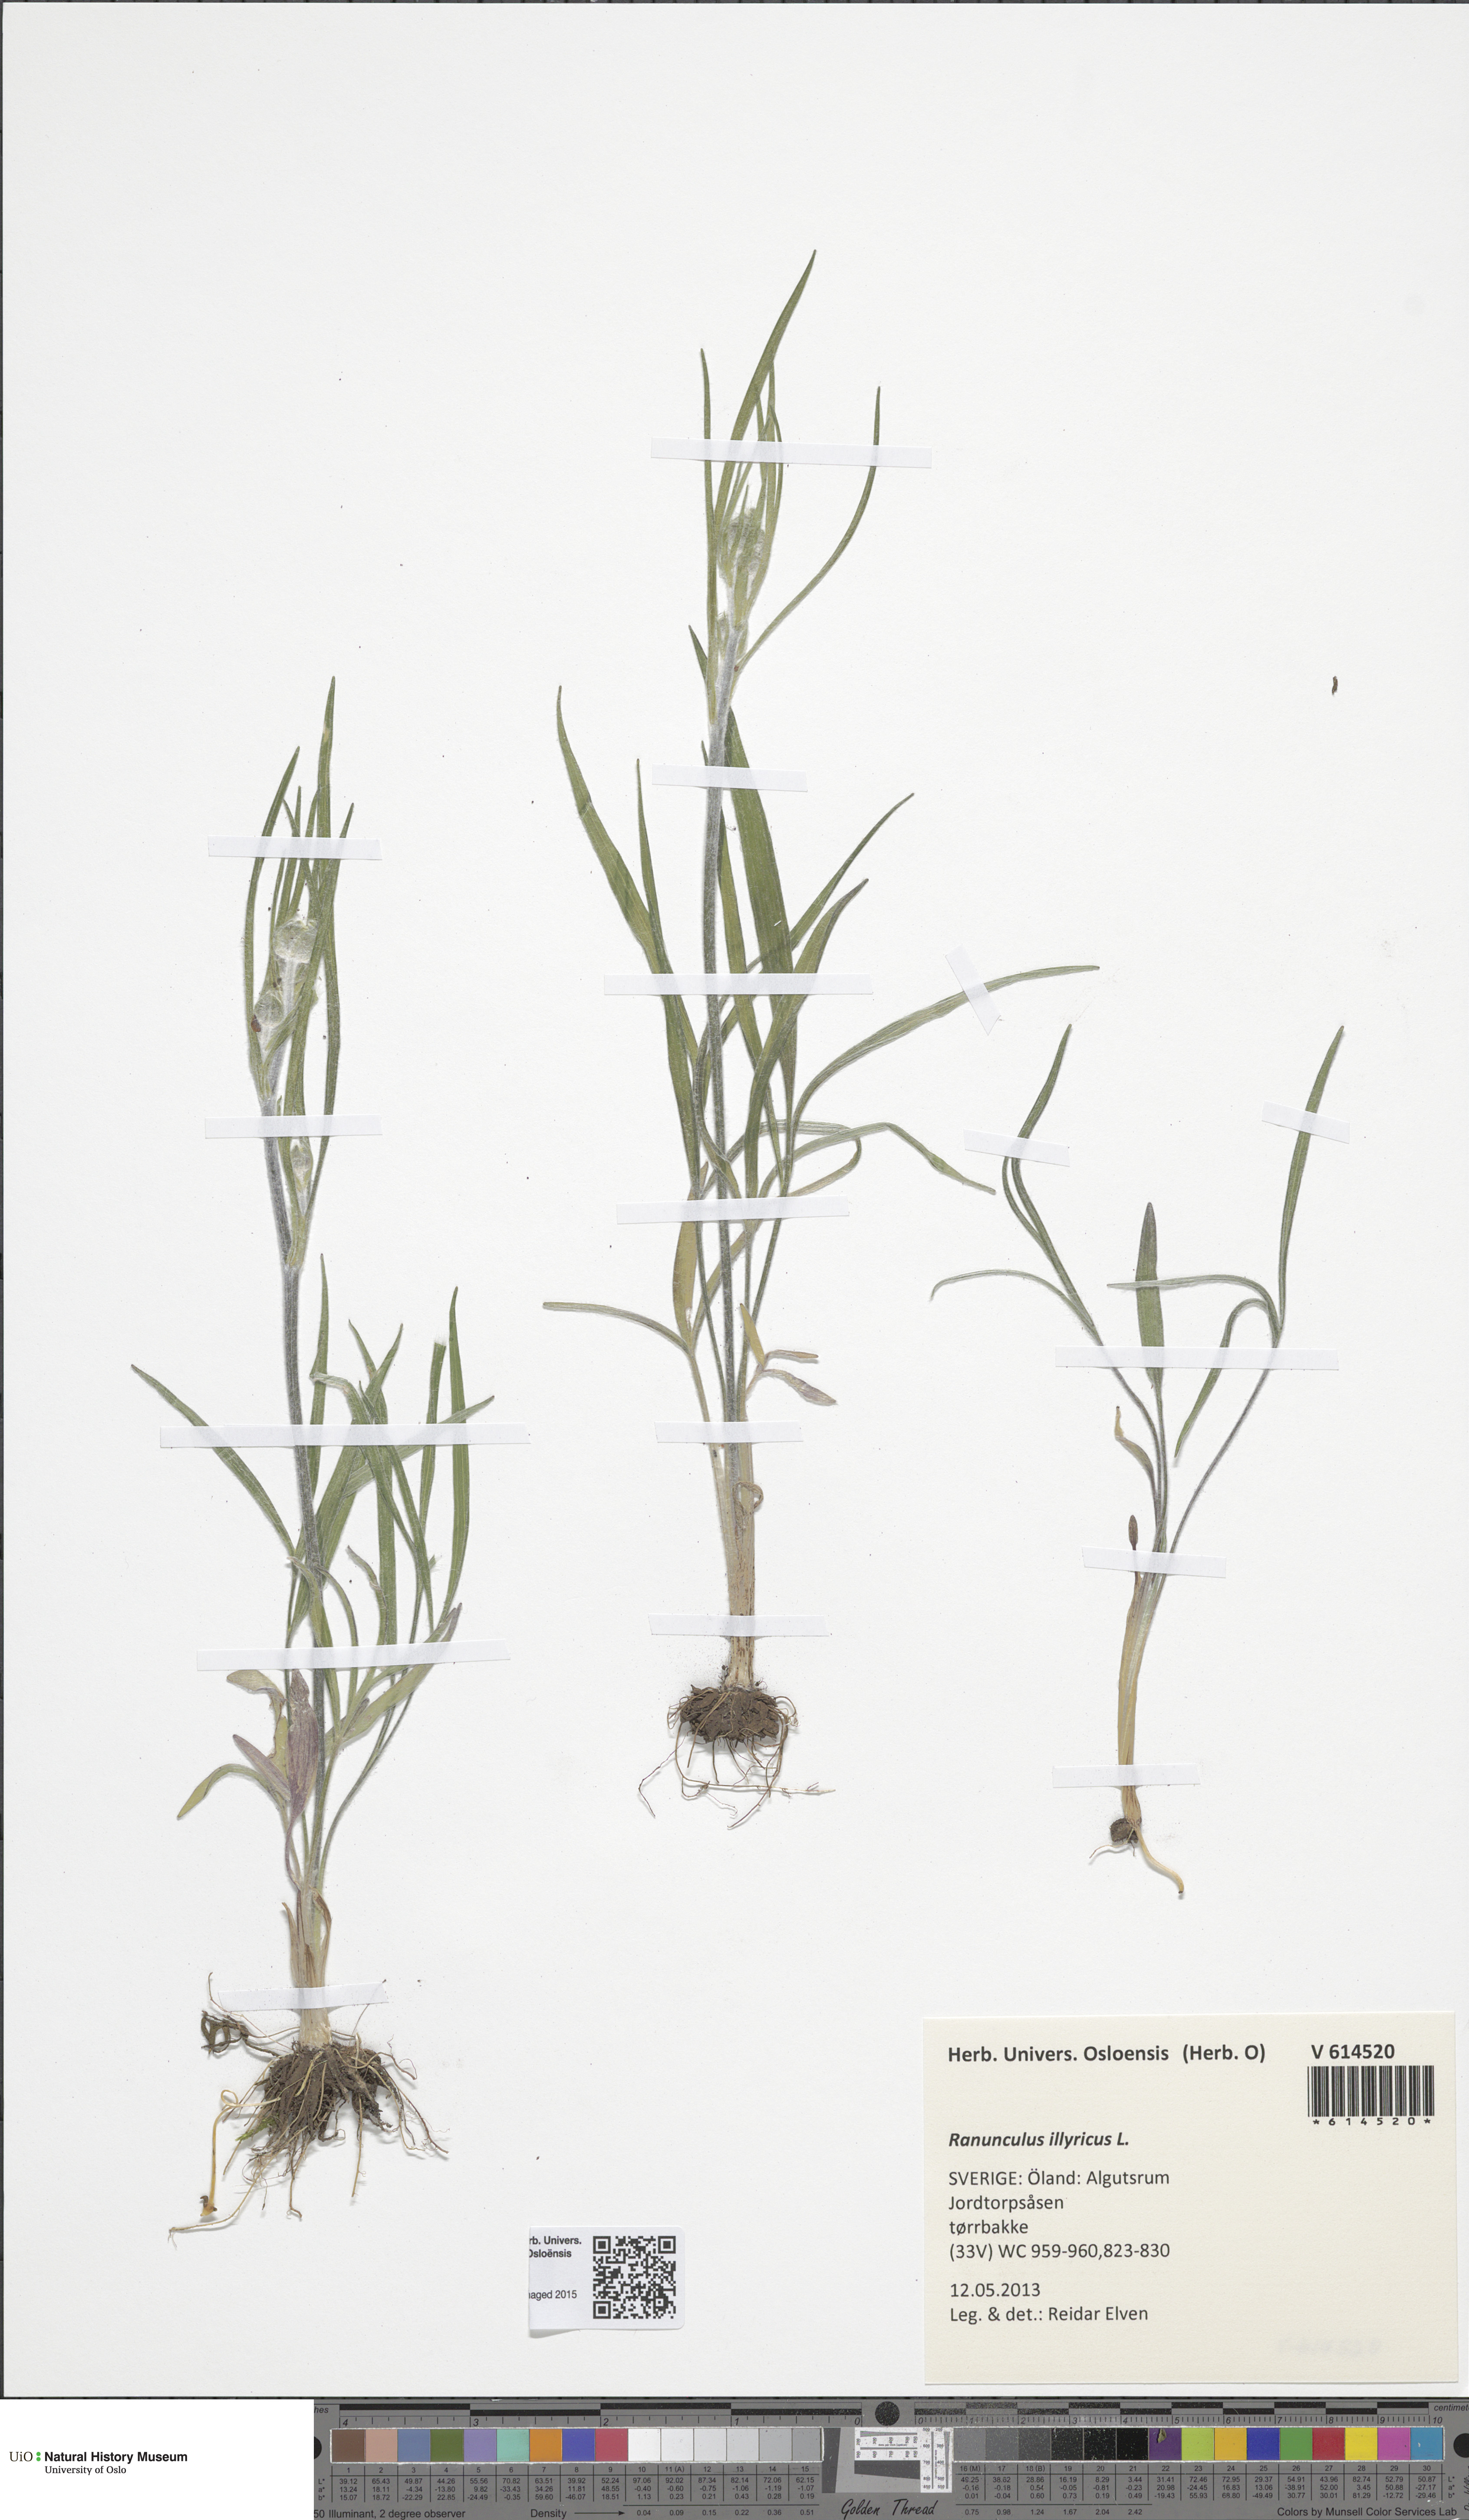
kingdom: Plantae
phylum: Tracheophyta
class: Magnoliopsida
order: Ranunculales
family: Ranunculaceae
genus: Ranunculus
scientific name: Ranunculus illyricus
